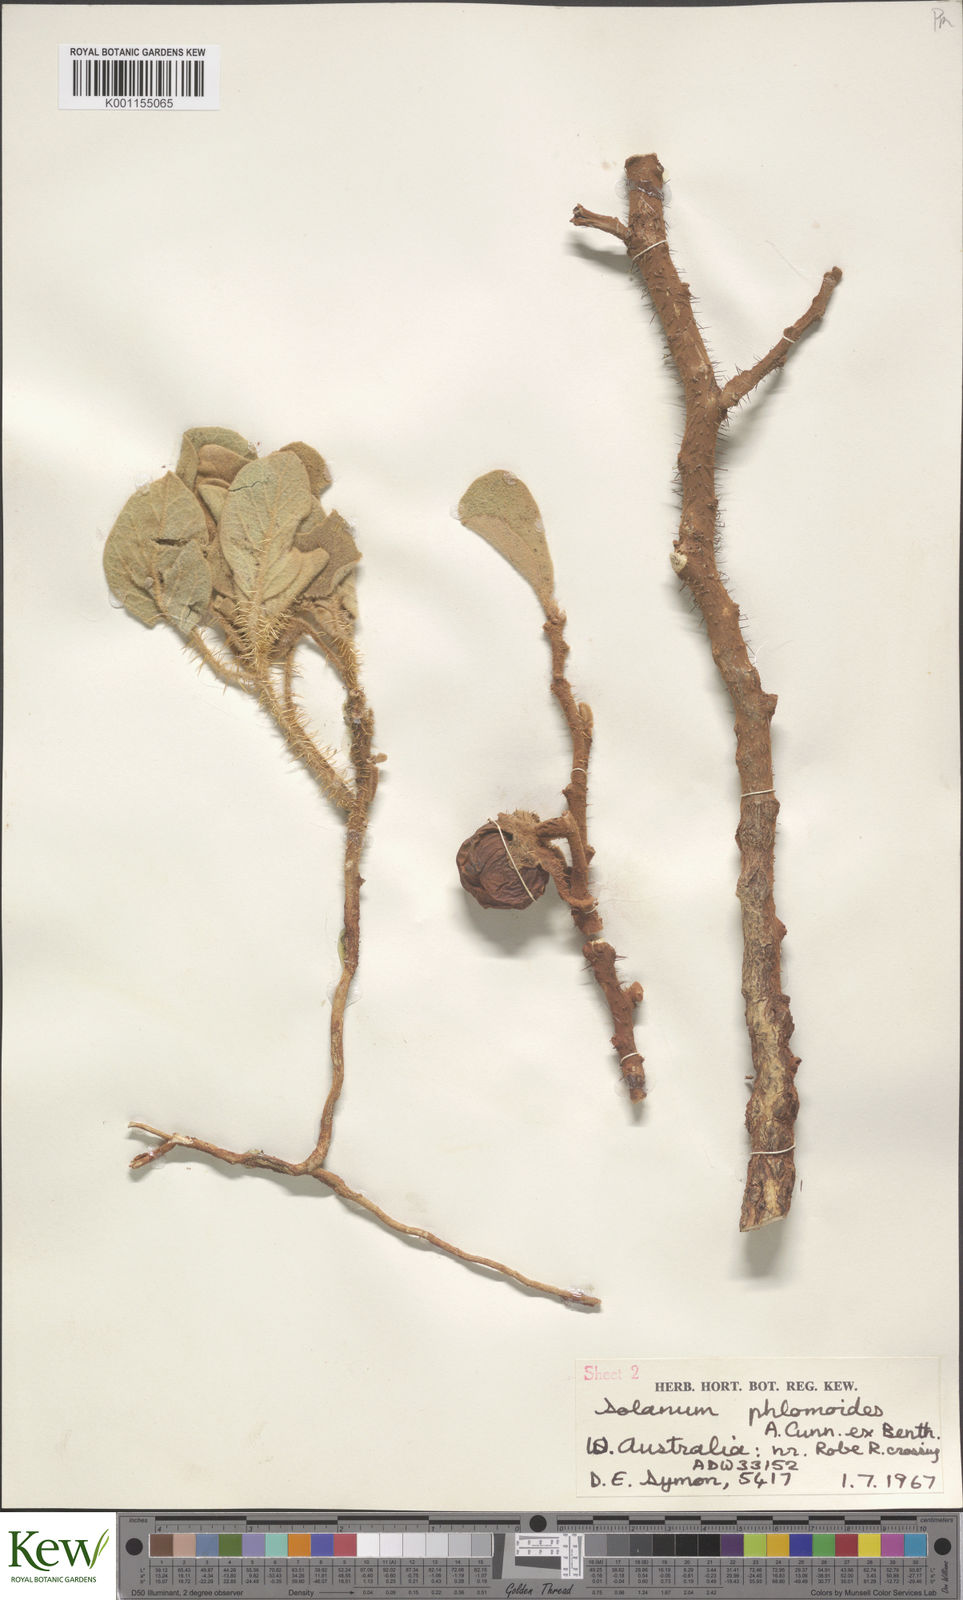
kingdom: Plantae
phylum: Tracheophyta
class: Magnoliopsida
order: Solanales
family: Solanaceae
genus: Solanum
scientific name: Solanum phlomoides
